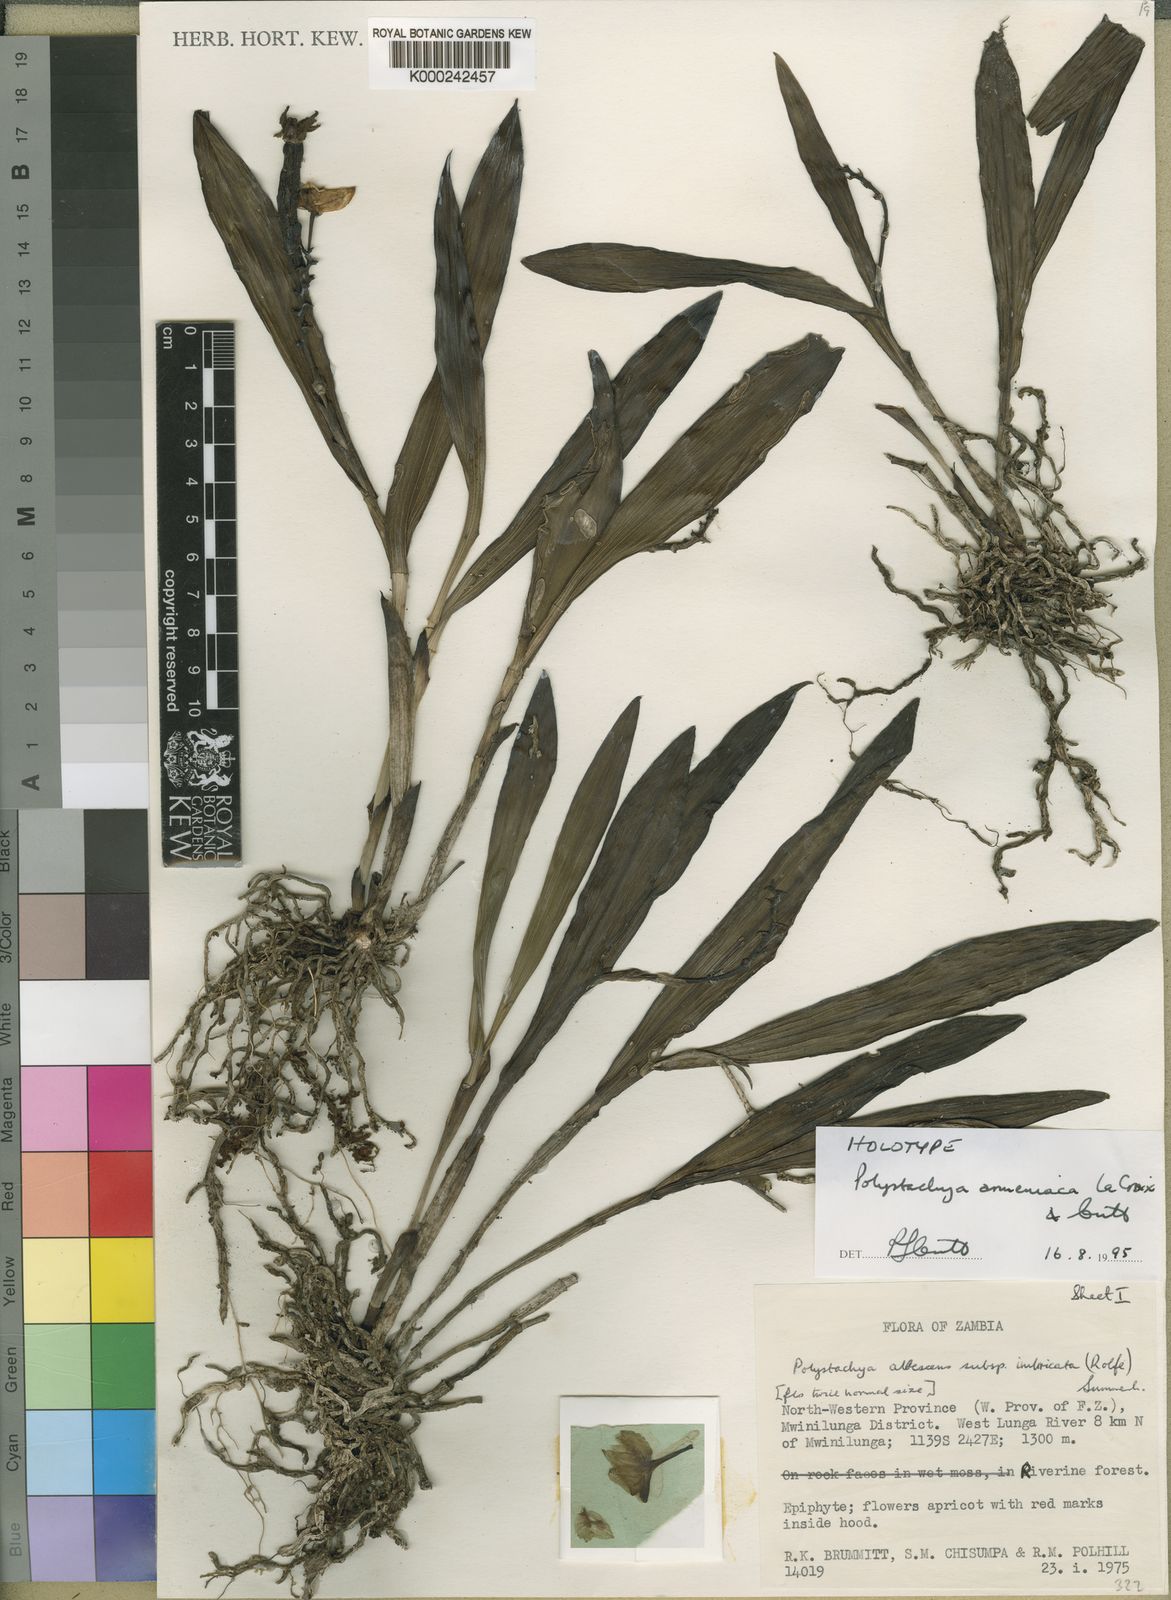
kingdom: Plantae
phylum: Tracheophyta
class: Liliopsida
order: Asparagales
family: Orchidaceae
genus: Polystachya
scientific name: Polystachya armeniaca
